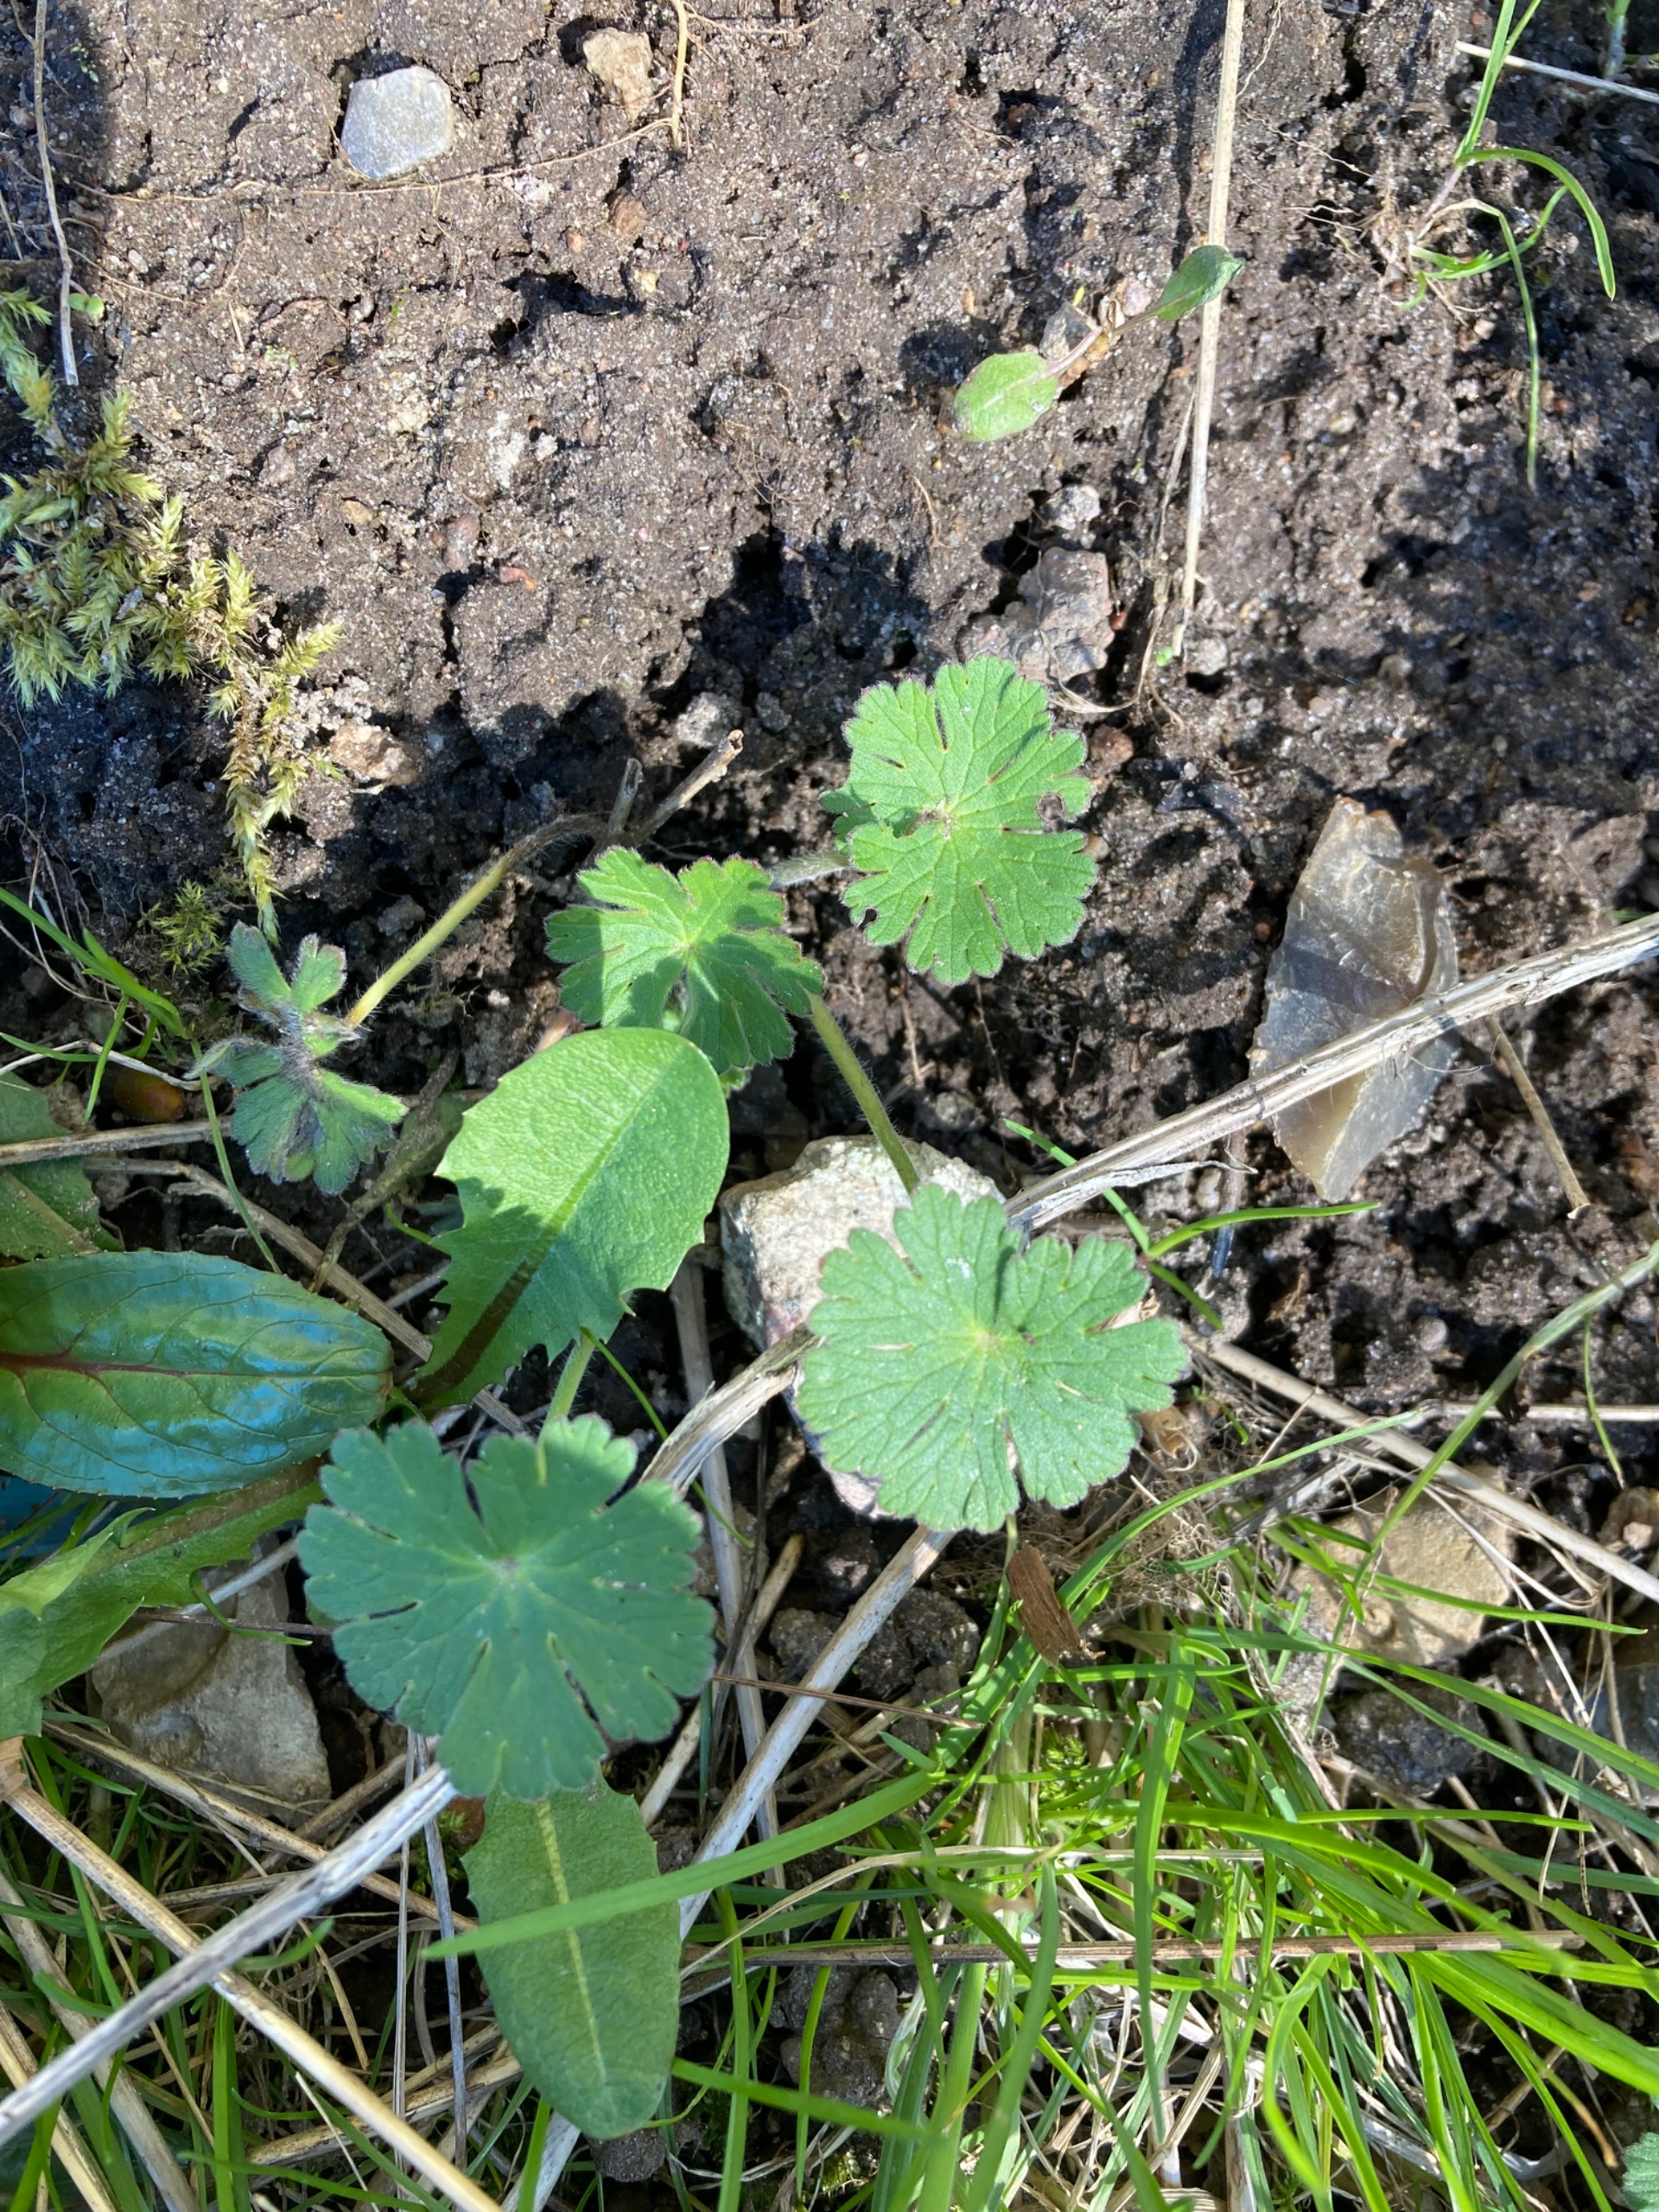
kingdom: Plantae
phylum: Tracheophyta
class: Magnoliopsida
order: Geraniales
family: Geraniaceae
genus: Geranium
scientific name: Geranium molle
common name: Blød storkenæb
